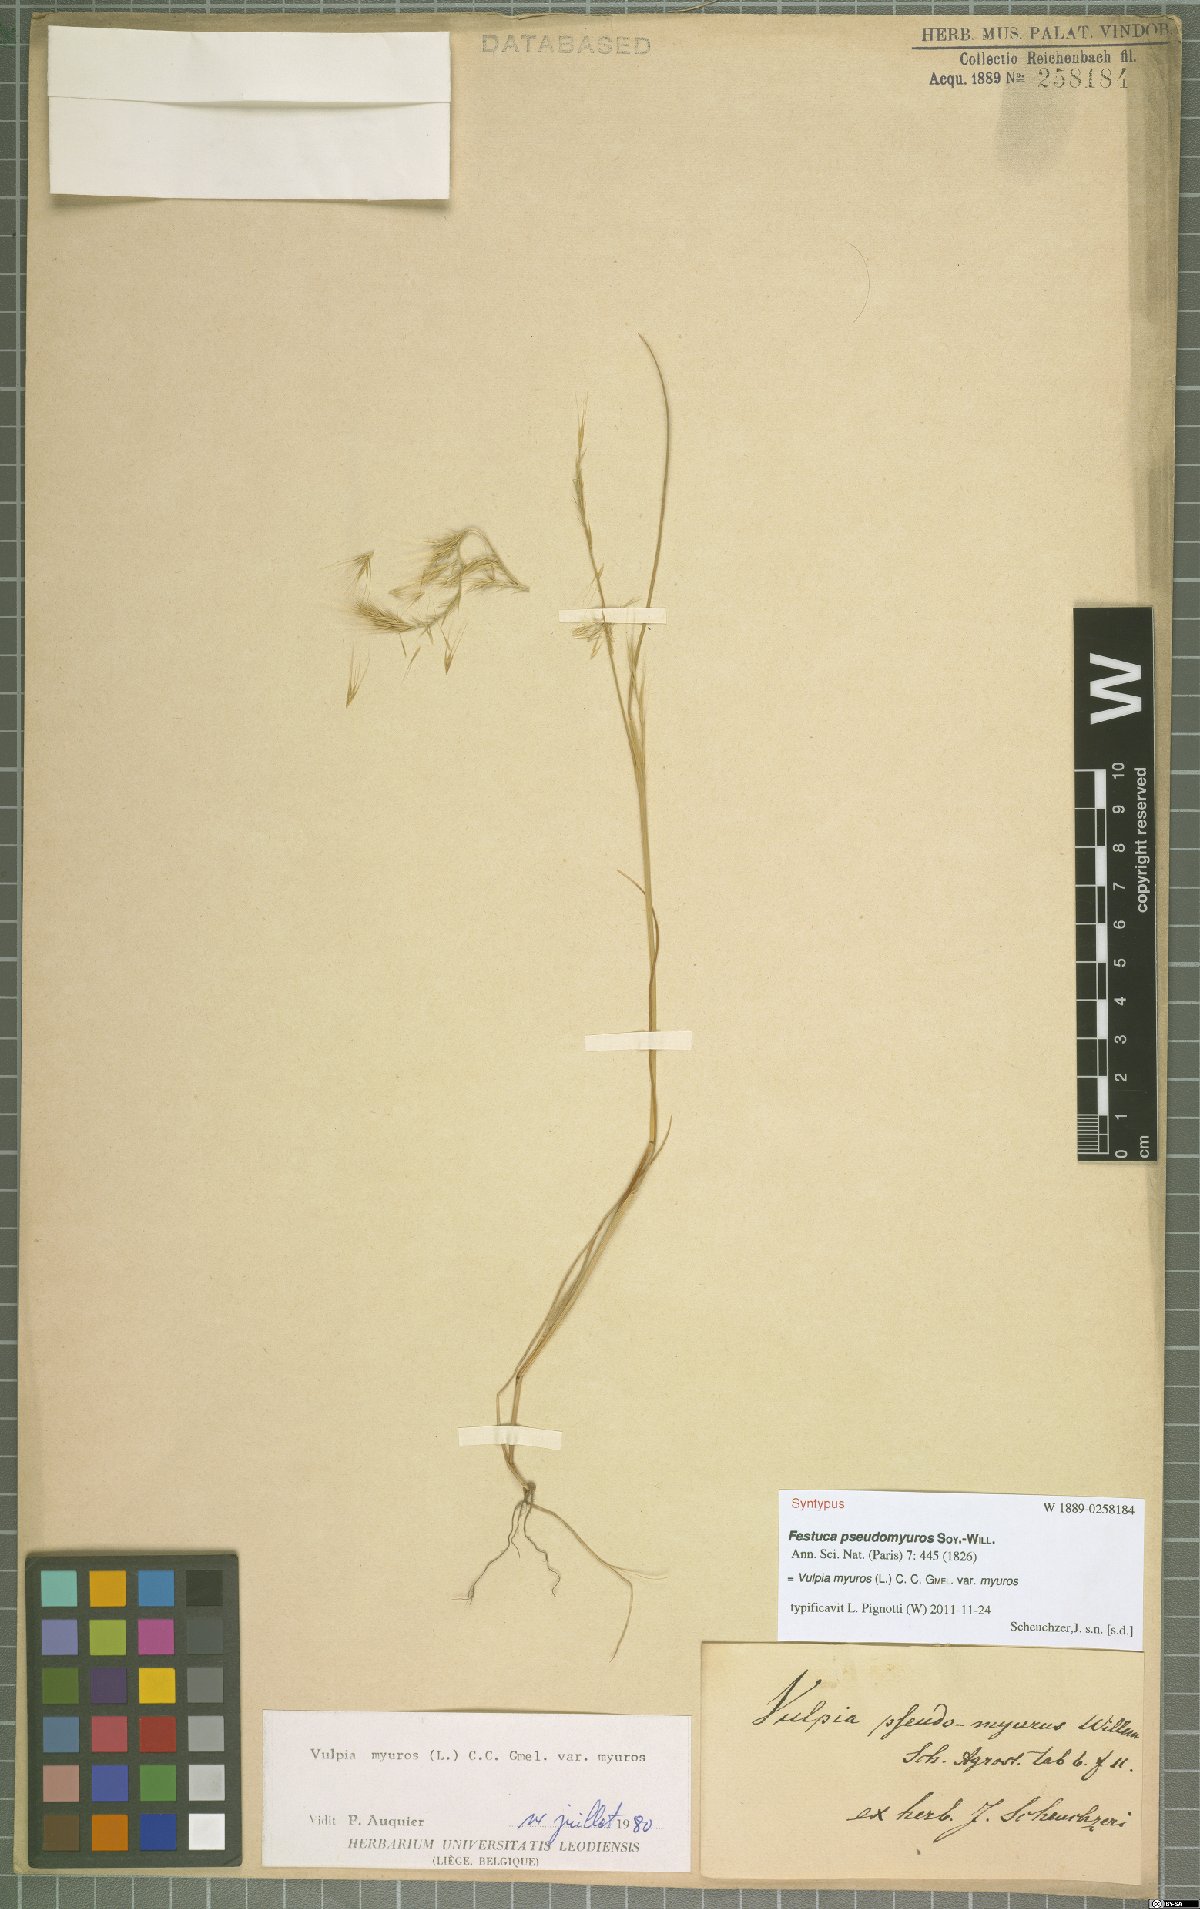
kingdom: Plantae
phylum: Tracheophyta
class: Liliopsida
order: Poales
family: Poaceae
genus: Festuca
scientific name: Festuca myuros
